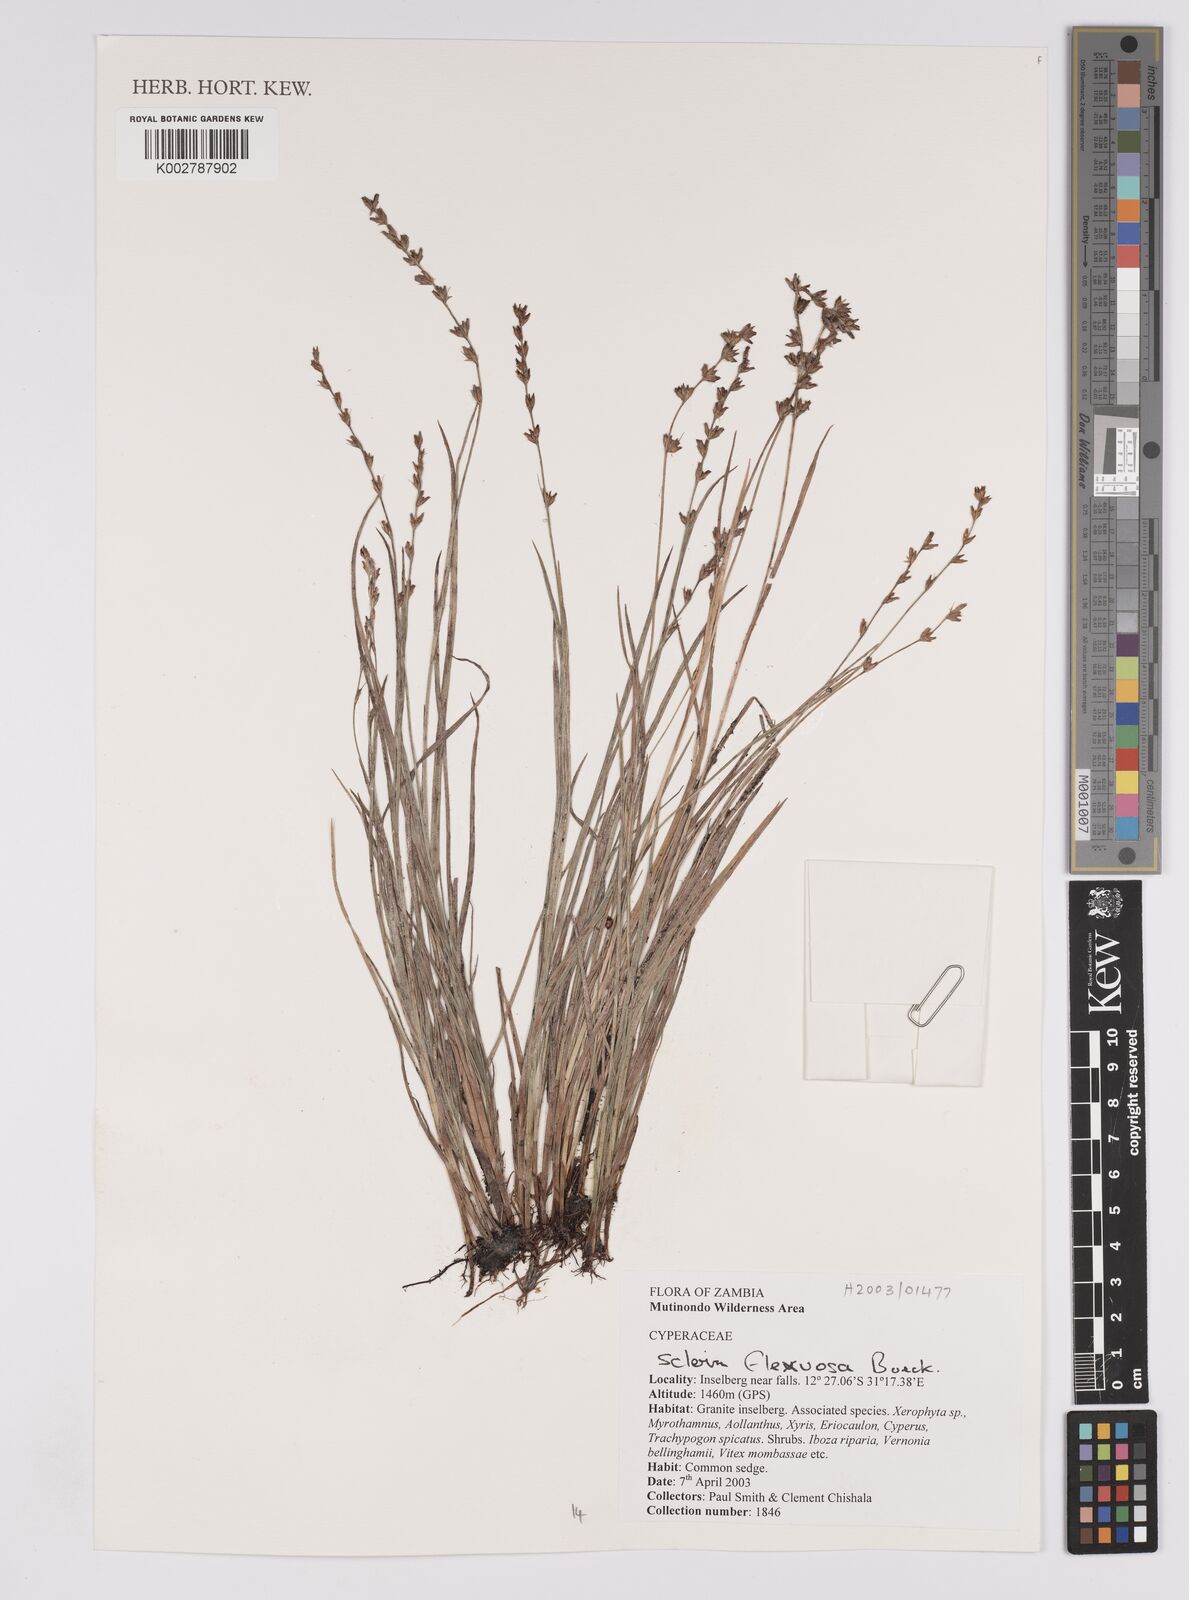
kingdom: Plantae
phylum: Tracheophyta
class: Liliopsida
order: Poales
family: Cyperaceae
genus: Scleria
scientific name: Scleria flexuosa
